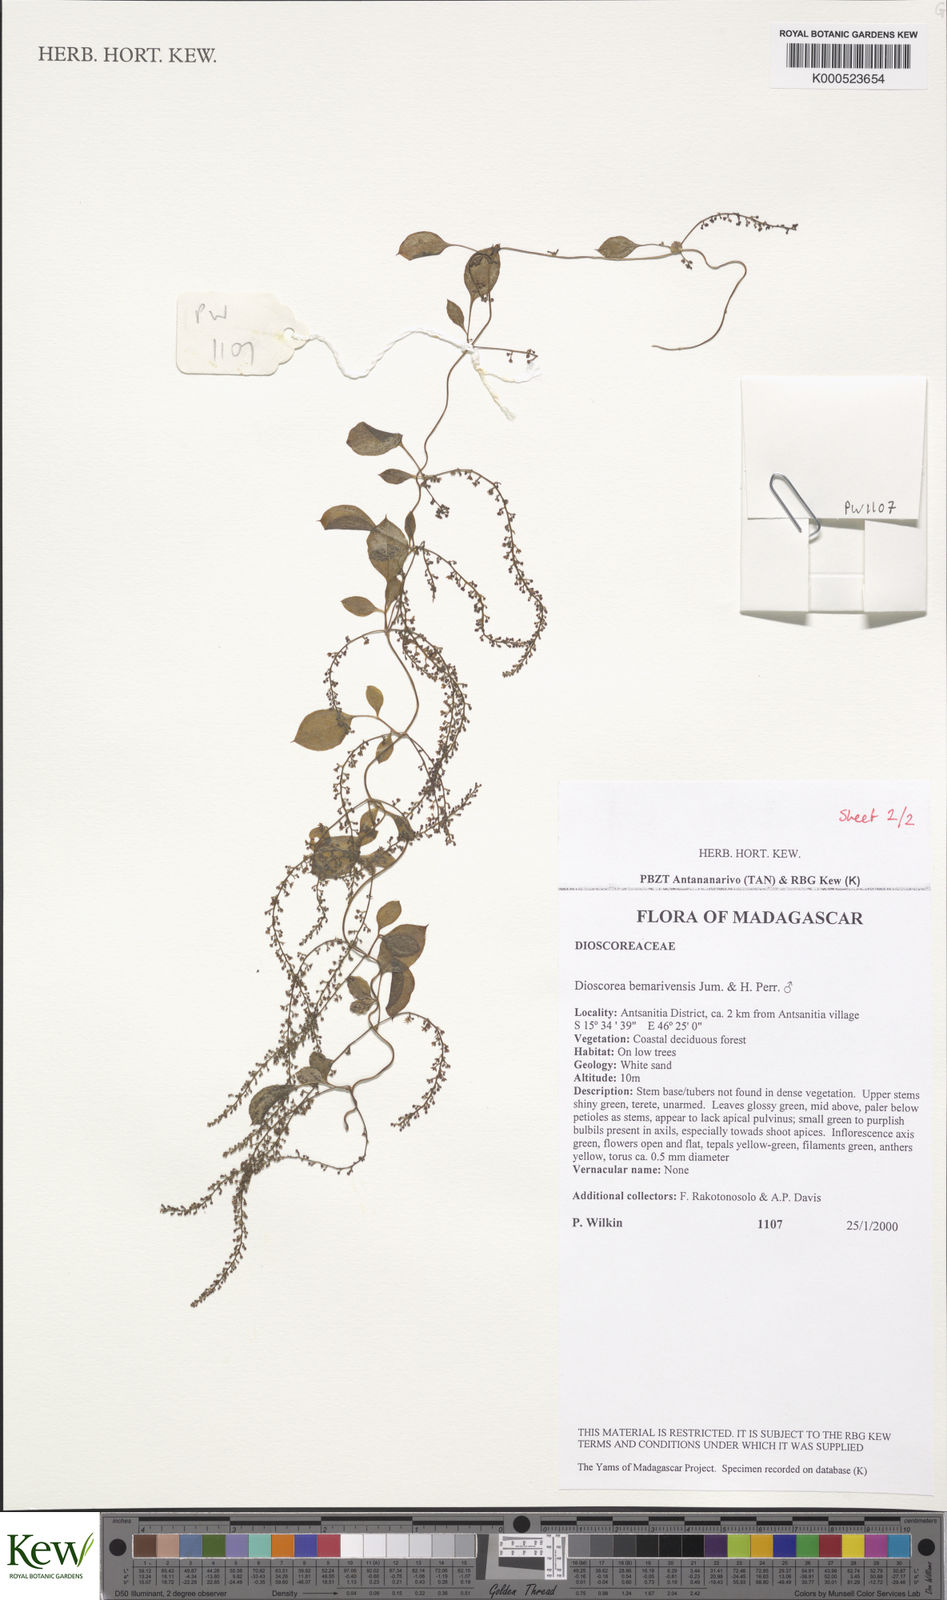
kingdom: Plantae
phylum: Tracheophyta
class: Liliopsida
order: Dioscoreales
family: Dioscoreaceae
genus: Dioscorea
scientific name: Dioscorea bemarivensis
